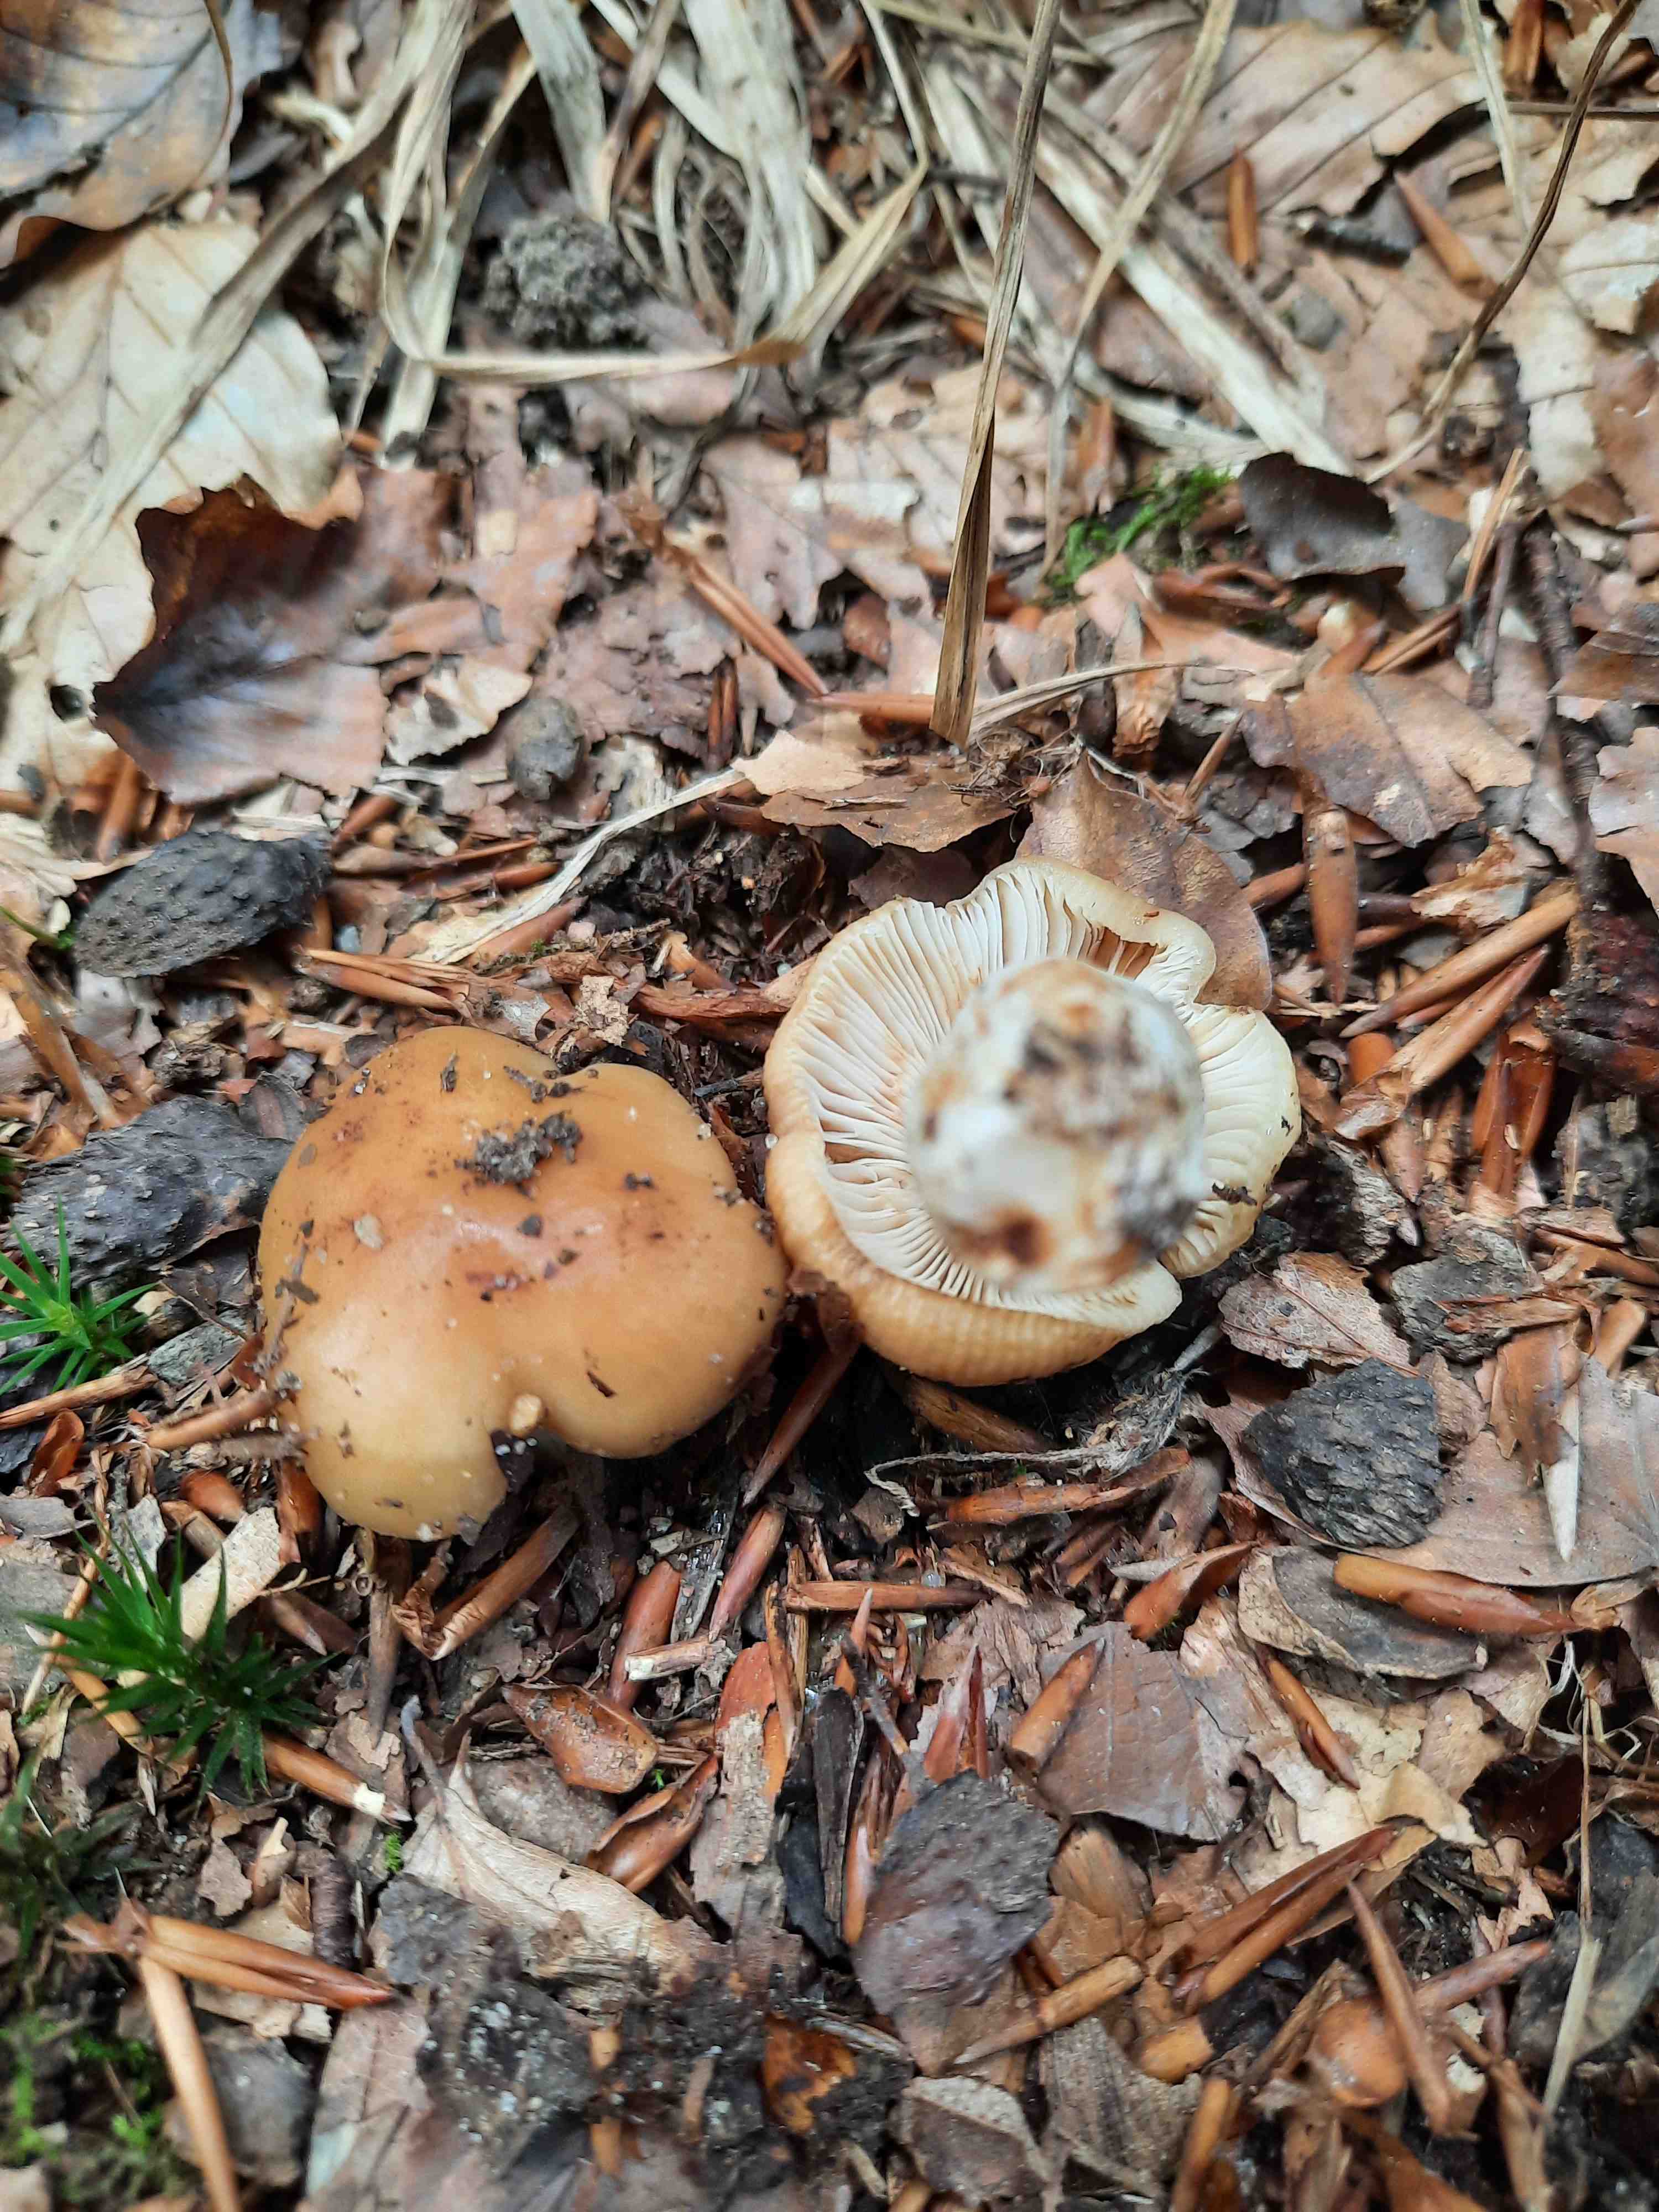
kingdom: Fungi
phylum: Basidiomycota
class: Agaricomycetes
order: Russulales
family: Russulaceae
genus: Russula
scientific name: Russula grata
